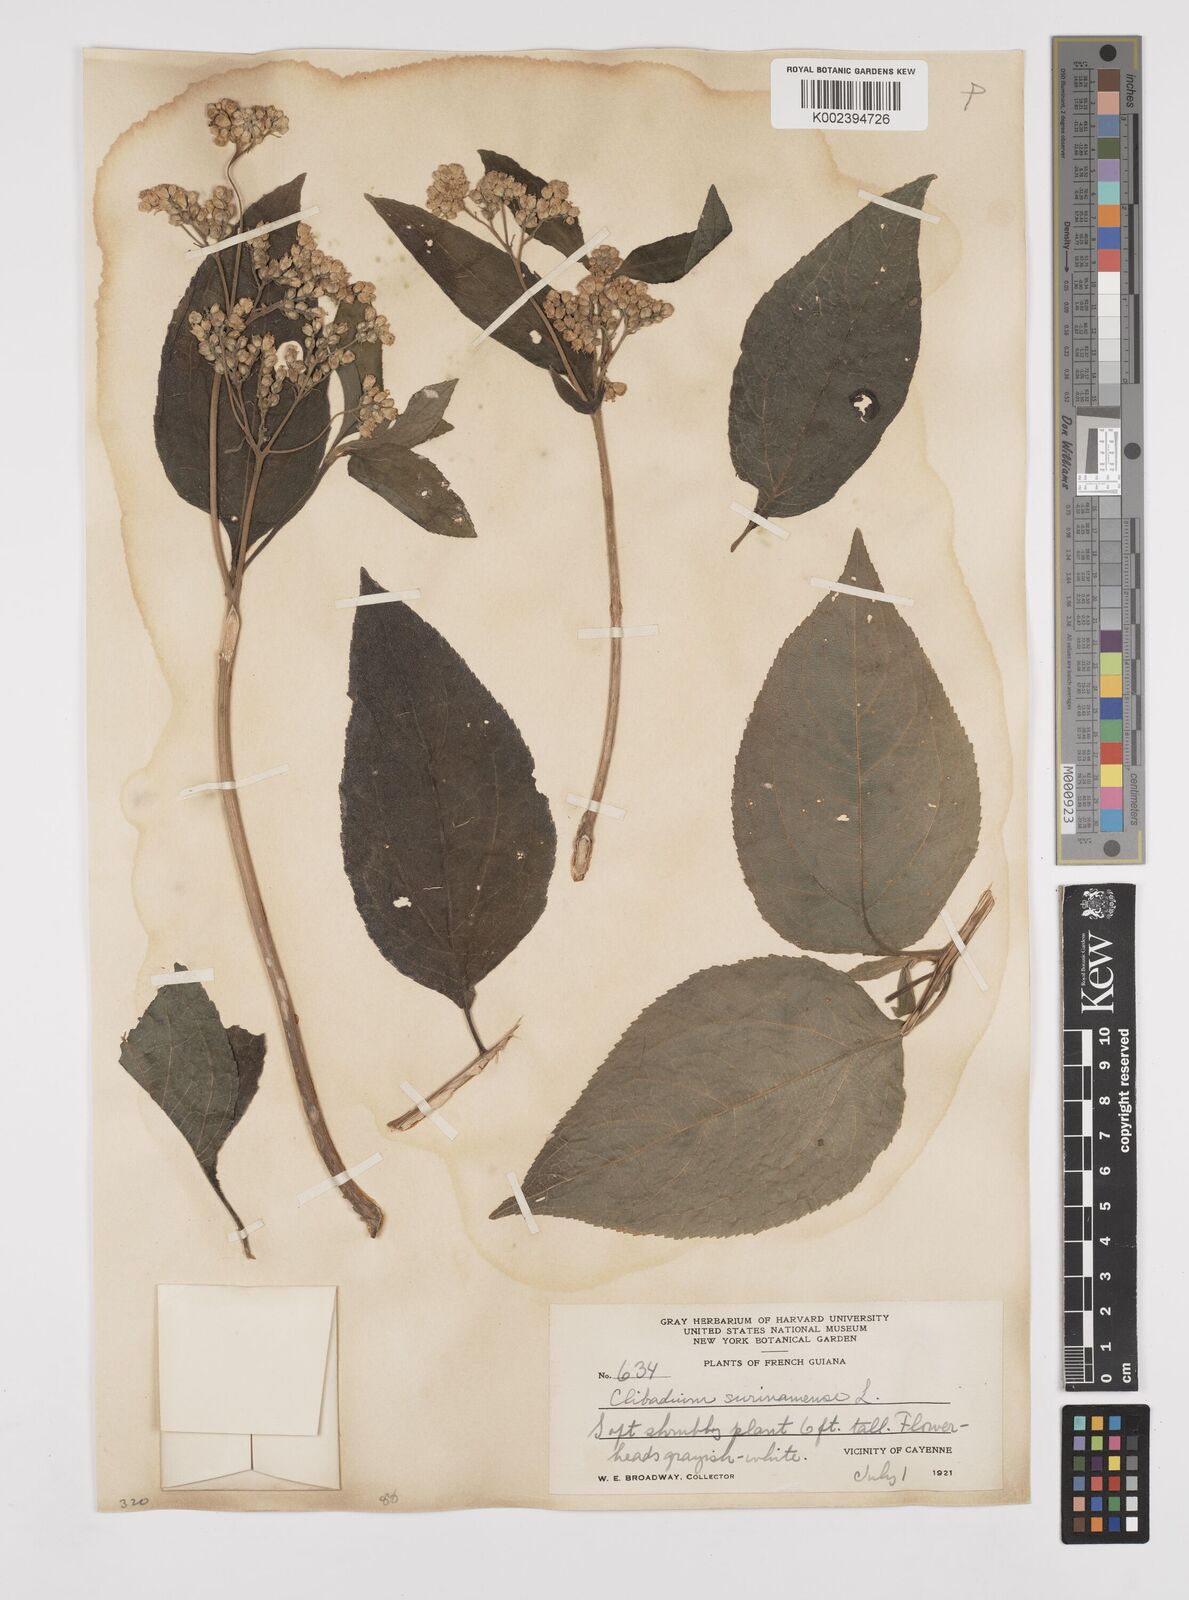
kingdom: Plantae
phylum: Tracheophyta
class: Magnoliopsida
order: Asterales
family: Asteraceae
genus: Clibadium
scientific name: Clibadium surinamense
